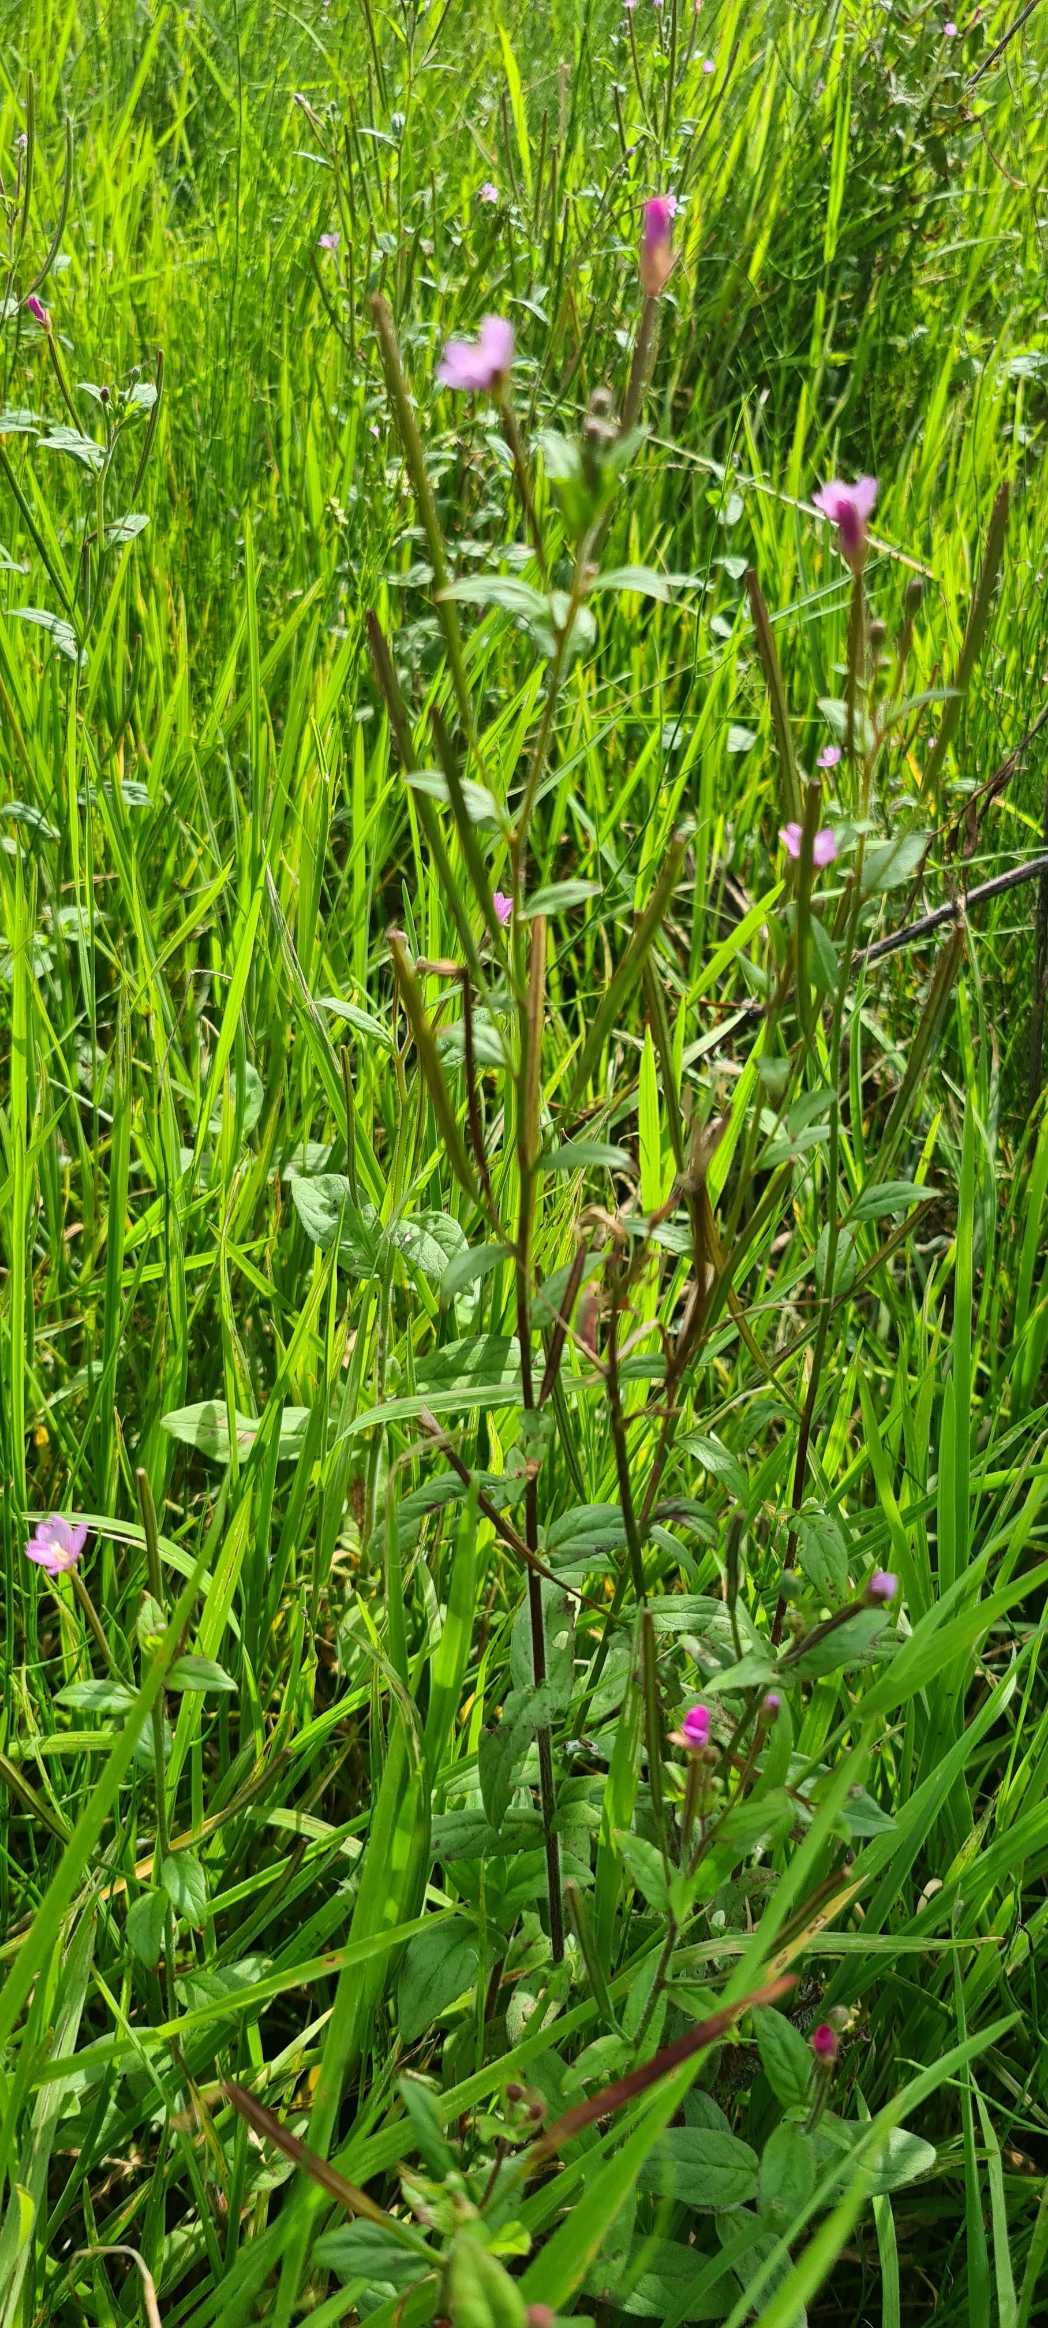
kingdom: Plantae
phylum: Tracheophyta
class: Magnoliopsida
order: Myrtales
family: Onagraceae
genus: Epilobium
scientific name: Epilobium
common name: Dueurtslægten
